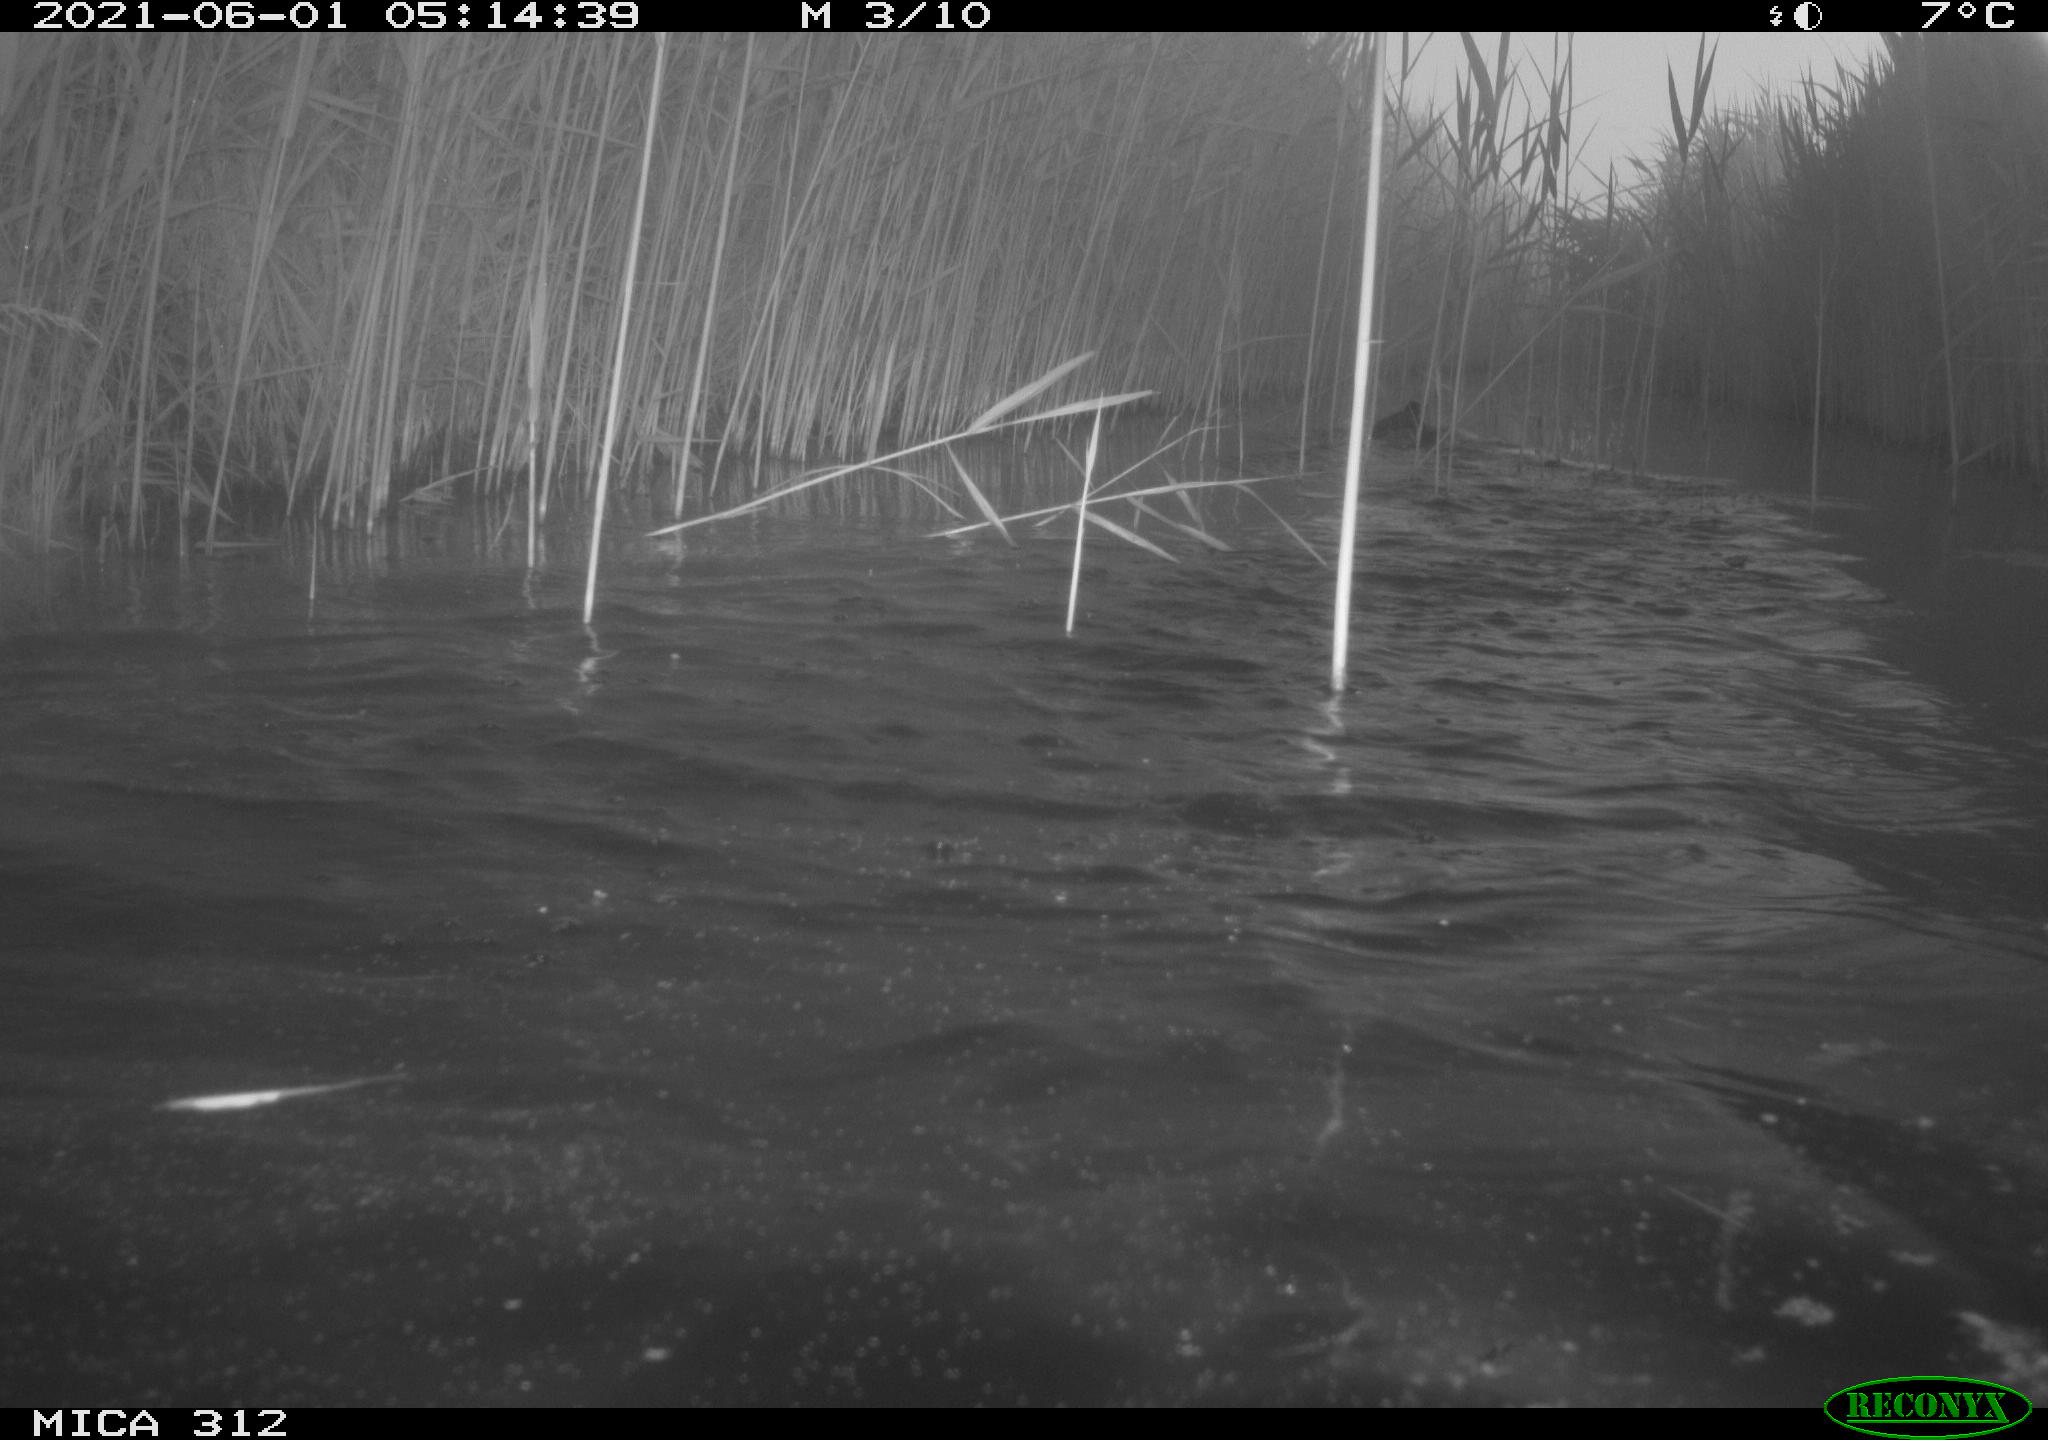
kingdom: Animalia
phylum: Chordata
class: Aves
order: Gruiformes
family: Rallidae
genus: Fulica
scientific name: Fulica atra
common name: Eurasian coot
